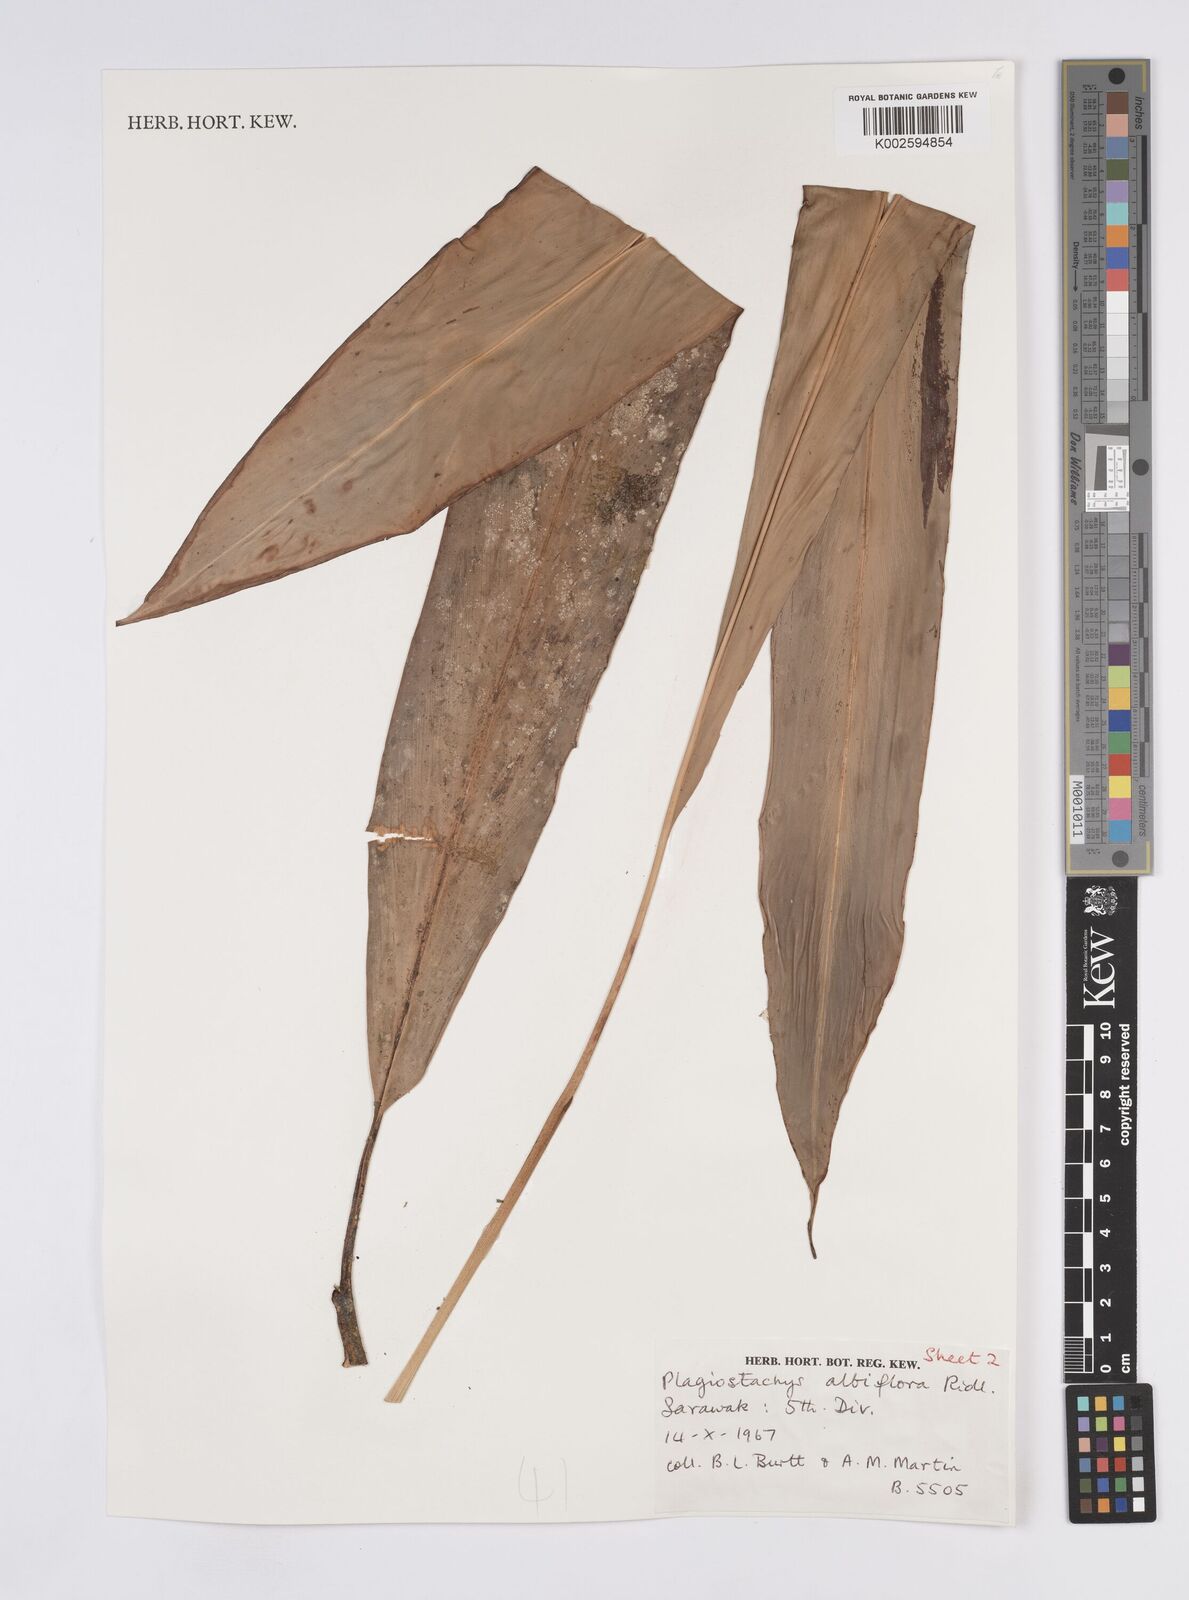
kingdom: Plantae
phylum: Tracheophyta
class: Liliopsida
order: Zingiberales
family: Zingiberaceae
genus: Plagiostachys
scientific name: Plagiostachys albiflora
